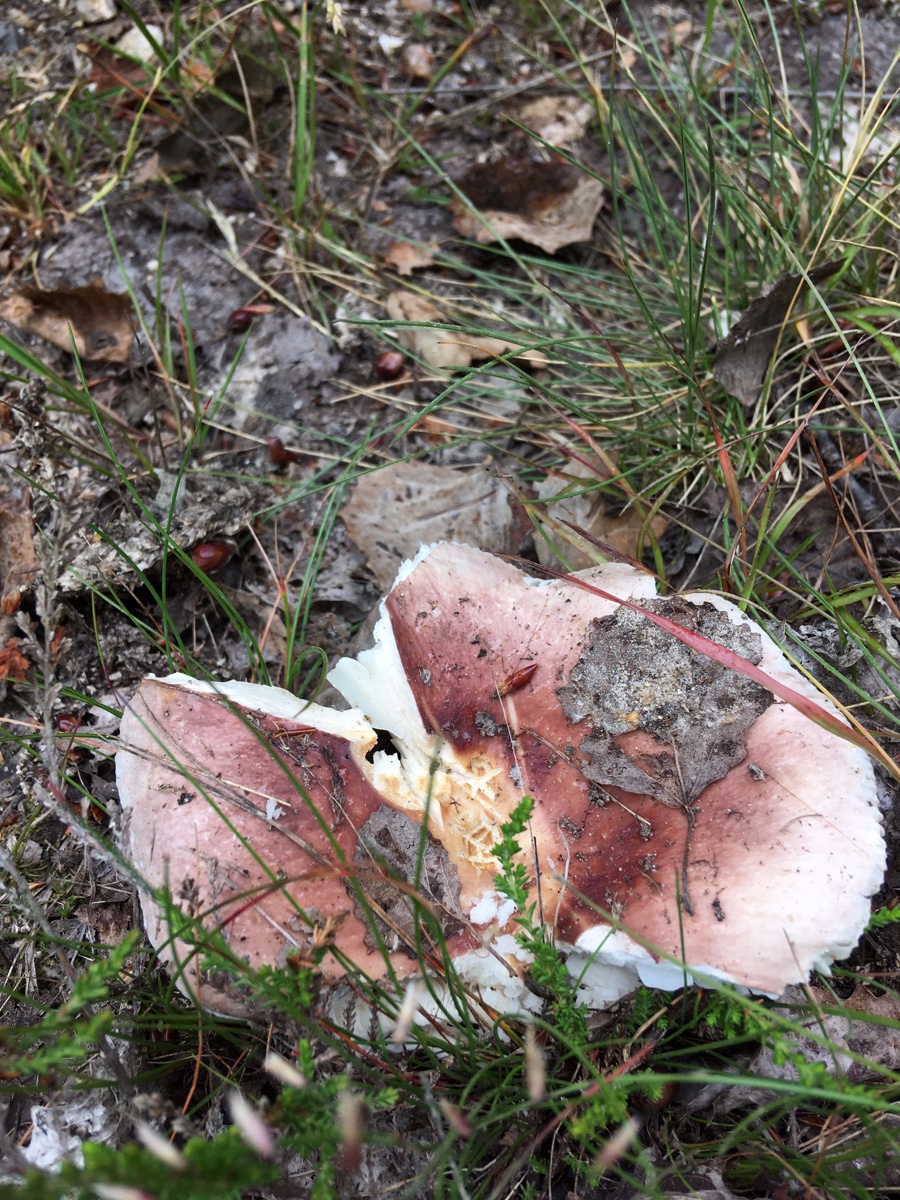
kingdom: Fungi
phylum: Basidiomycota
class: Agaricomycetes
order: Russulales
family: Russulaceae
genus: Russula
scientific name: Russula vesca
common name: spiselig skørhat
